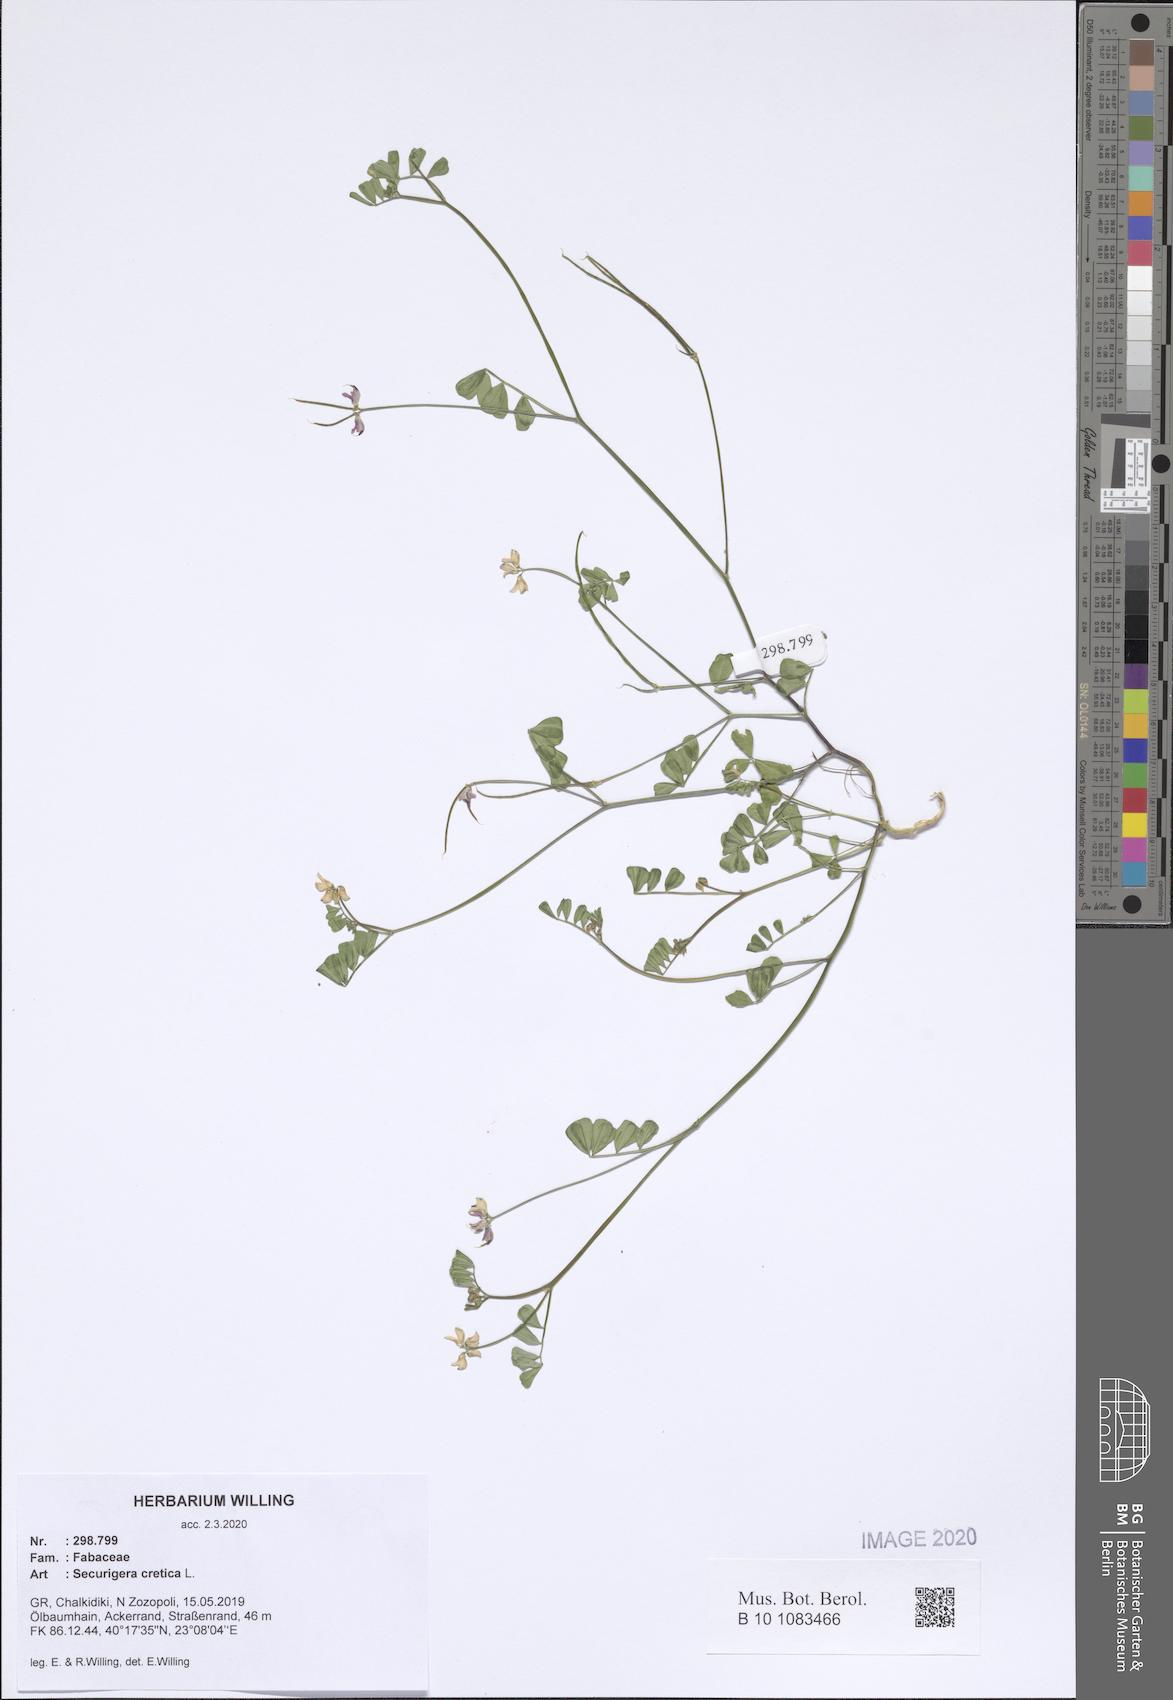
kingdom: Plantae
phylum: Tracheophyta
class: Magnoliopsida
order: Fabales
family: Fabaceae
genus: Coronilla
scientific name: Coronilla cretica
